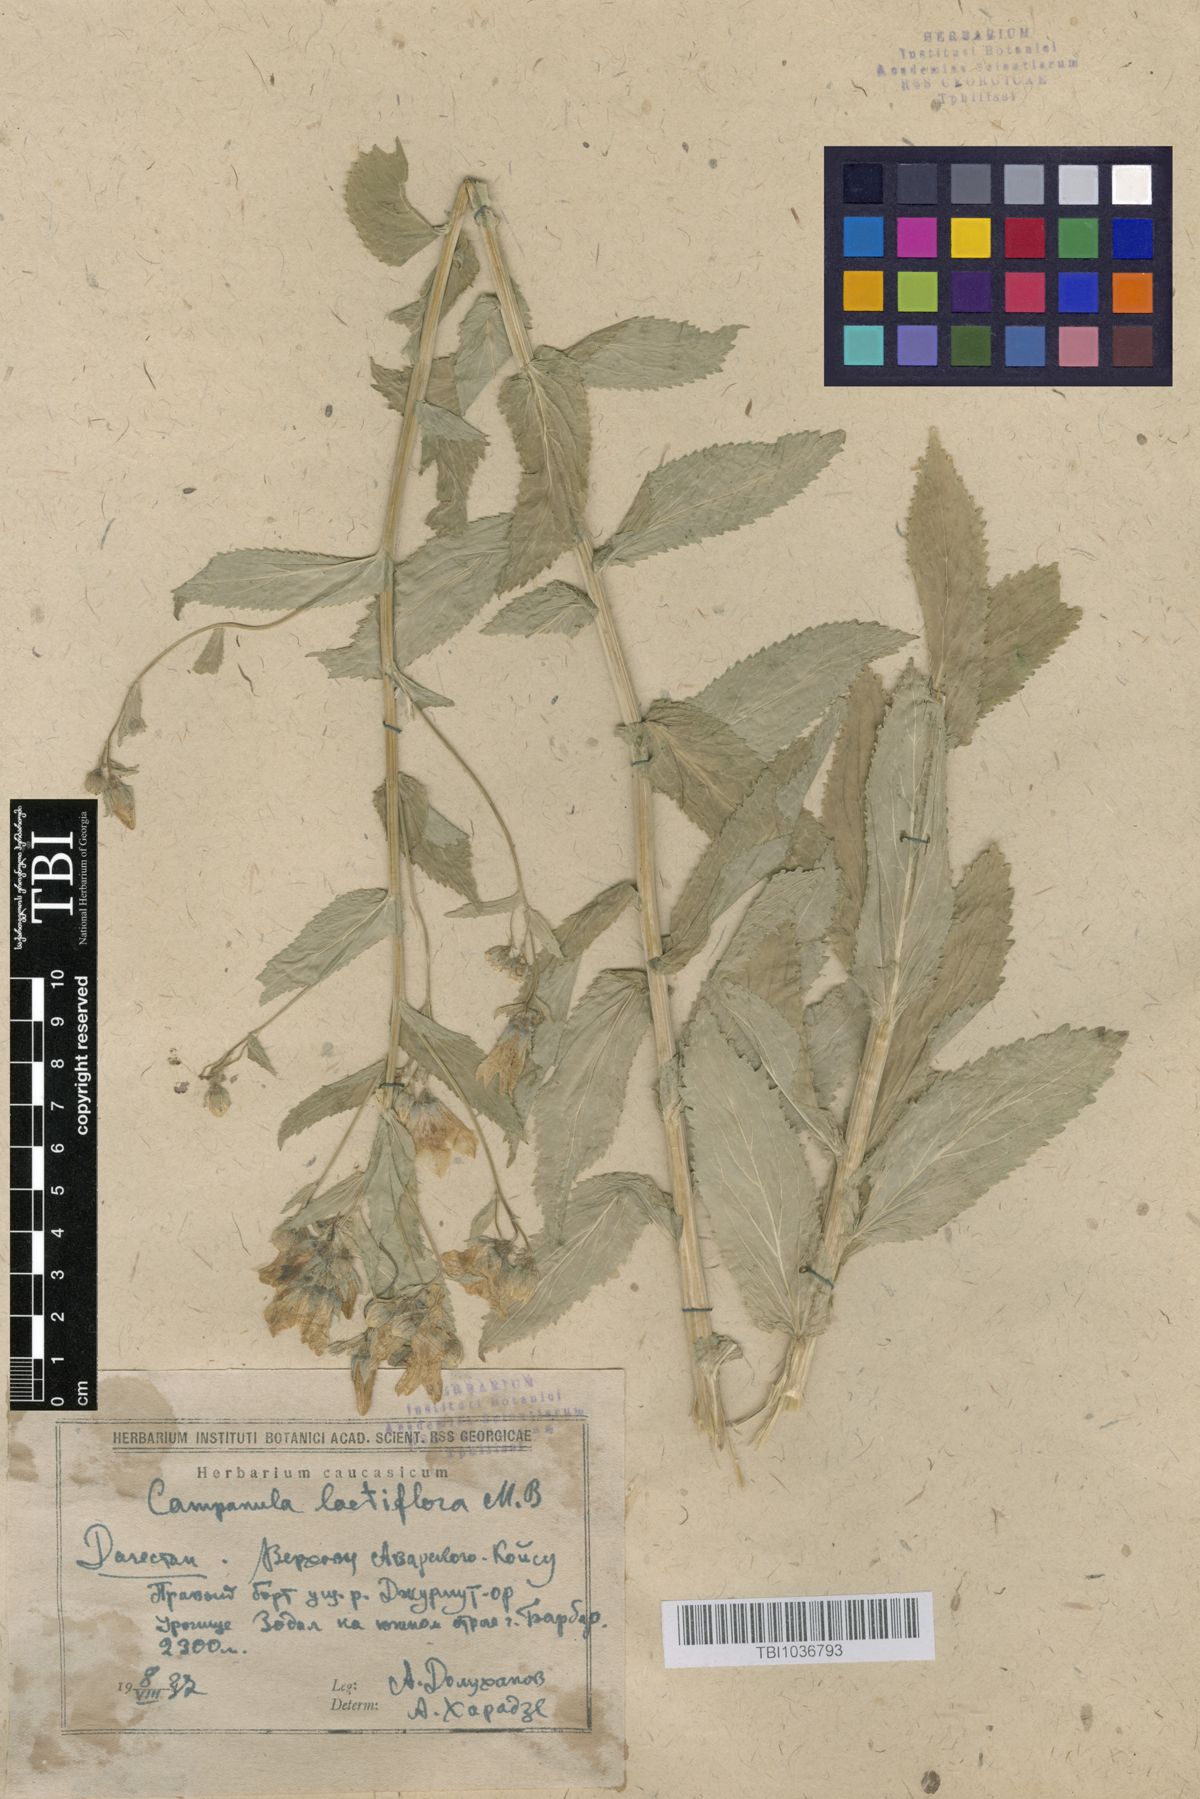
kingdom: Plantae
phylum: Tracheophyta
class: Magnoliopsida
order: Asterales
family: Campanulaceae
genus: Campanula
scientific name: Campanula lactiflora
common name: Milky bellflower
